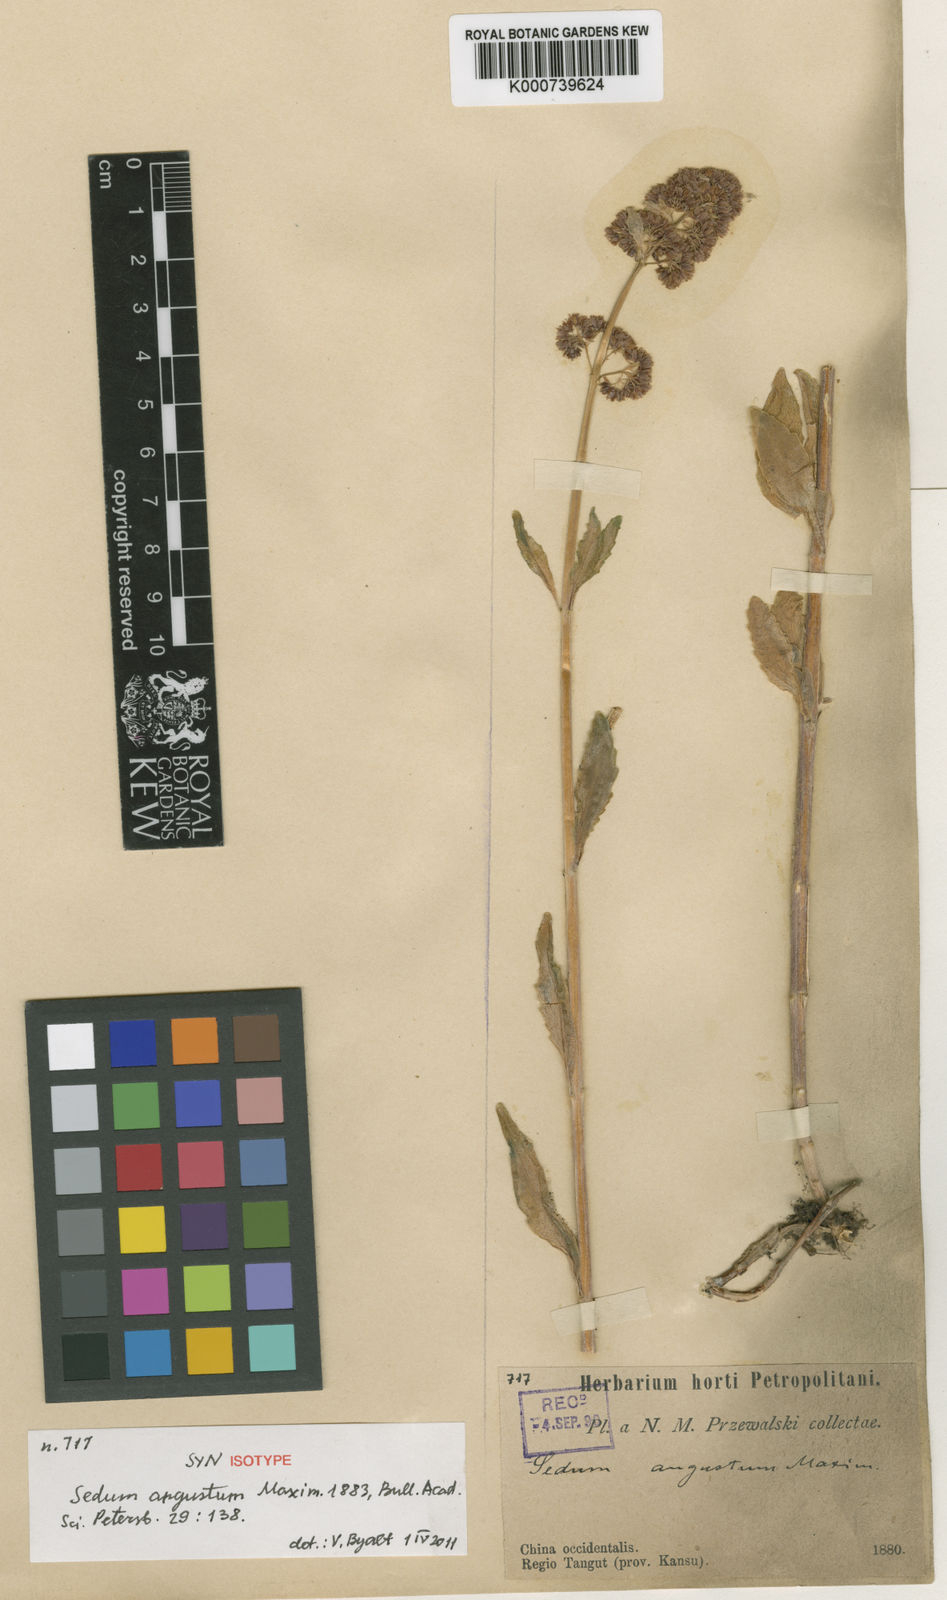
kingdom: Plantae
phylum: Tracheophyta
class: Magnoliopsida
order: Saxifragales
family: Crassulaceae
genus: Hylotelephium
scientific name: Hylotelephium angustum
